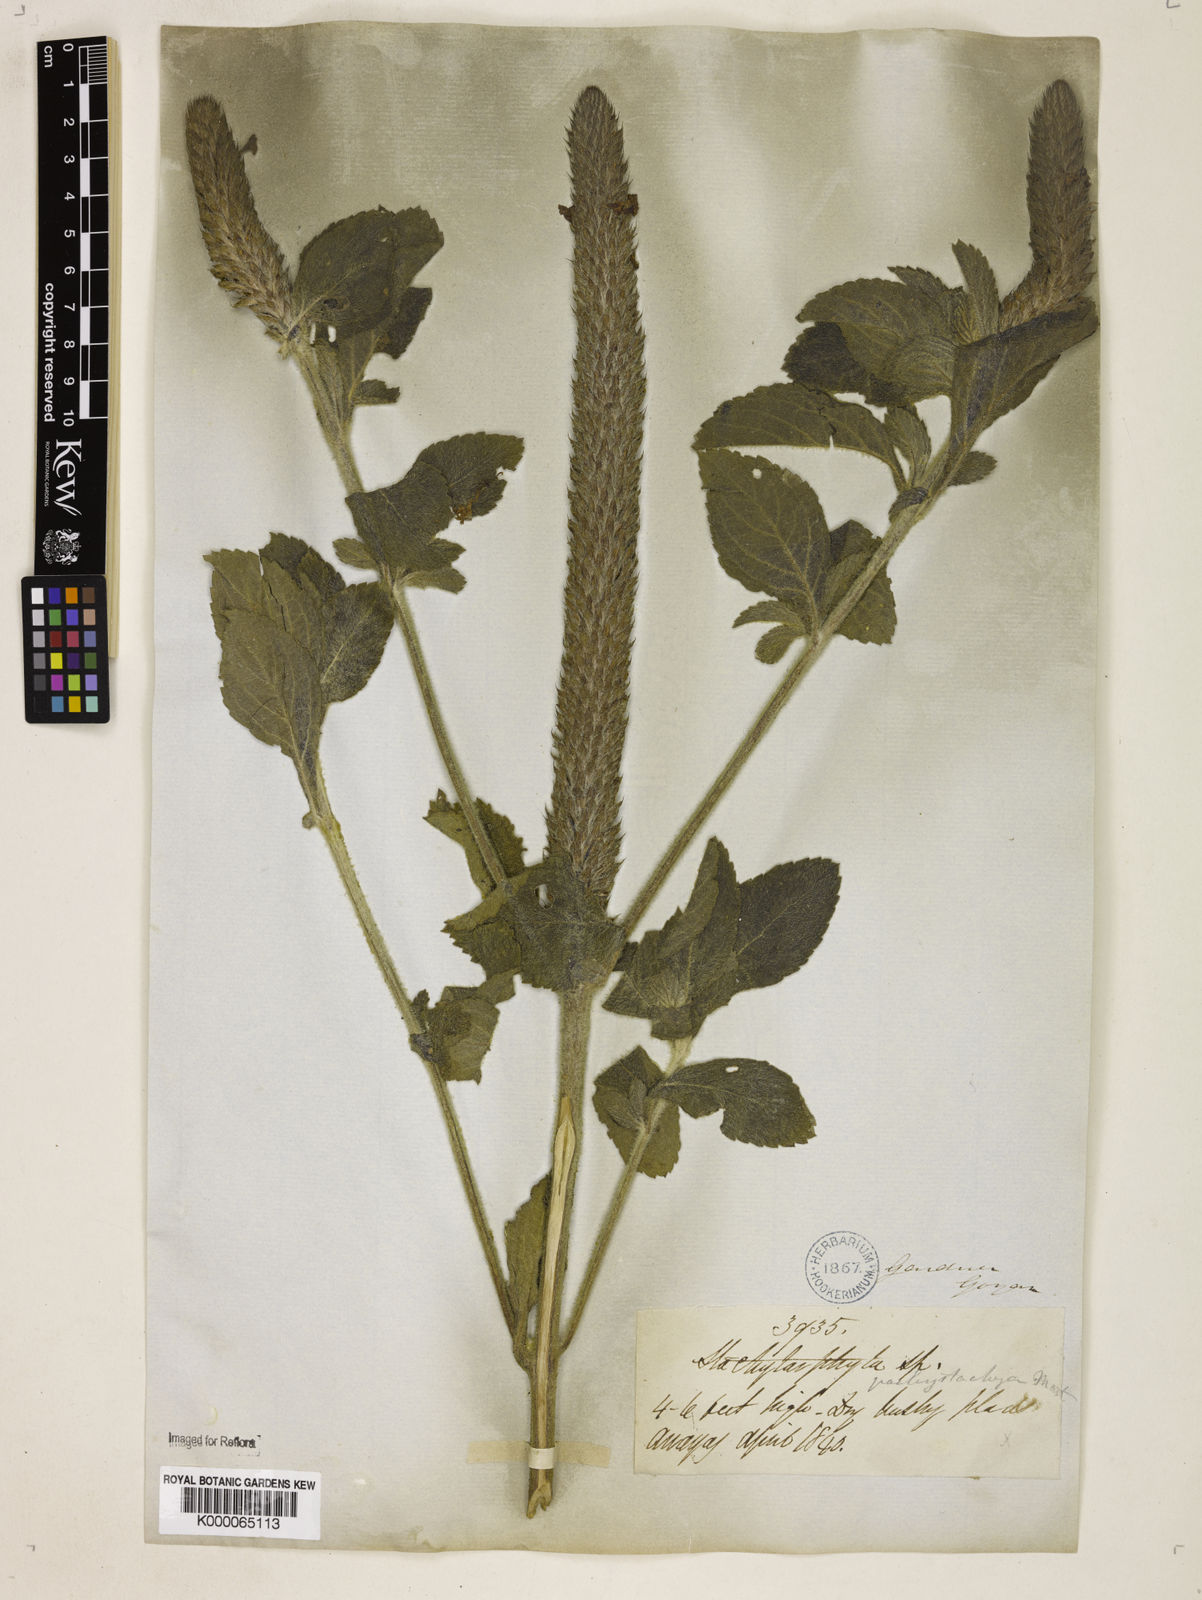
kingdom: Plantae
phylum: Tracheophyta
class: Magnoliopsida
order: Lamiales
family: Verbenaceae
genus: Stachytarpheta
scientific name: Stachytarpheta
